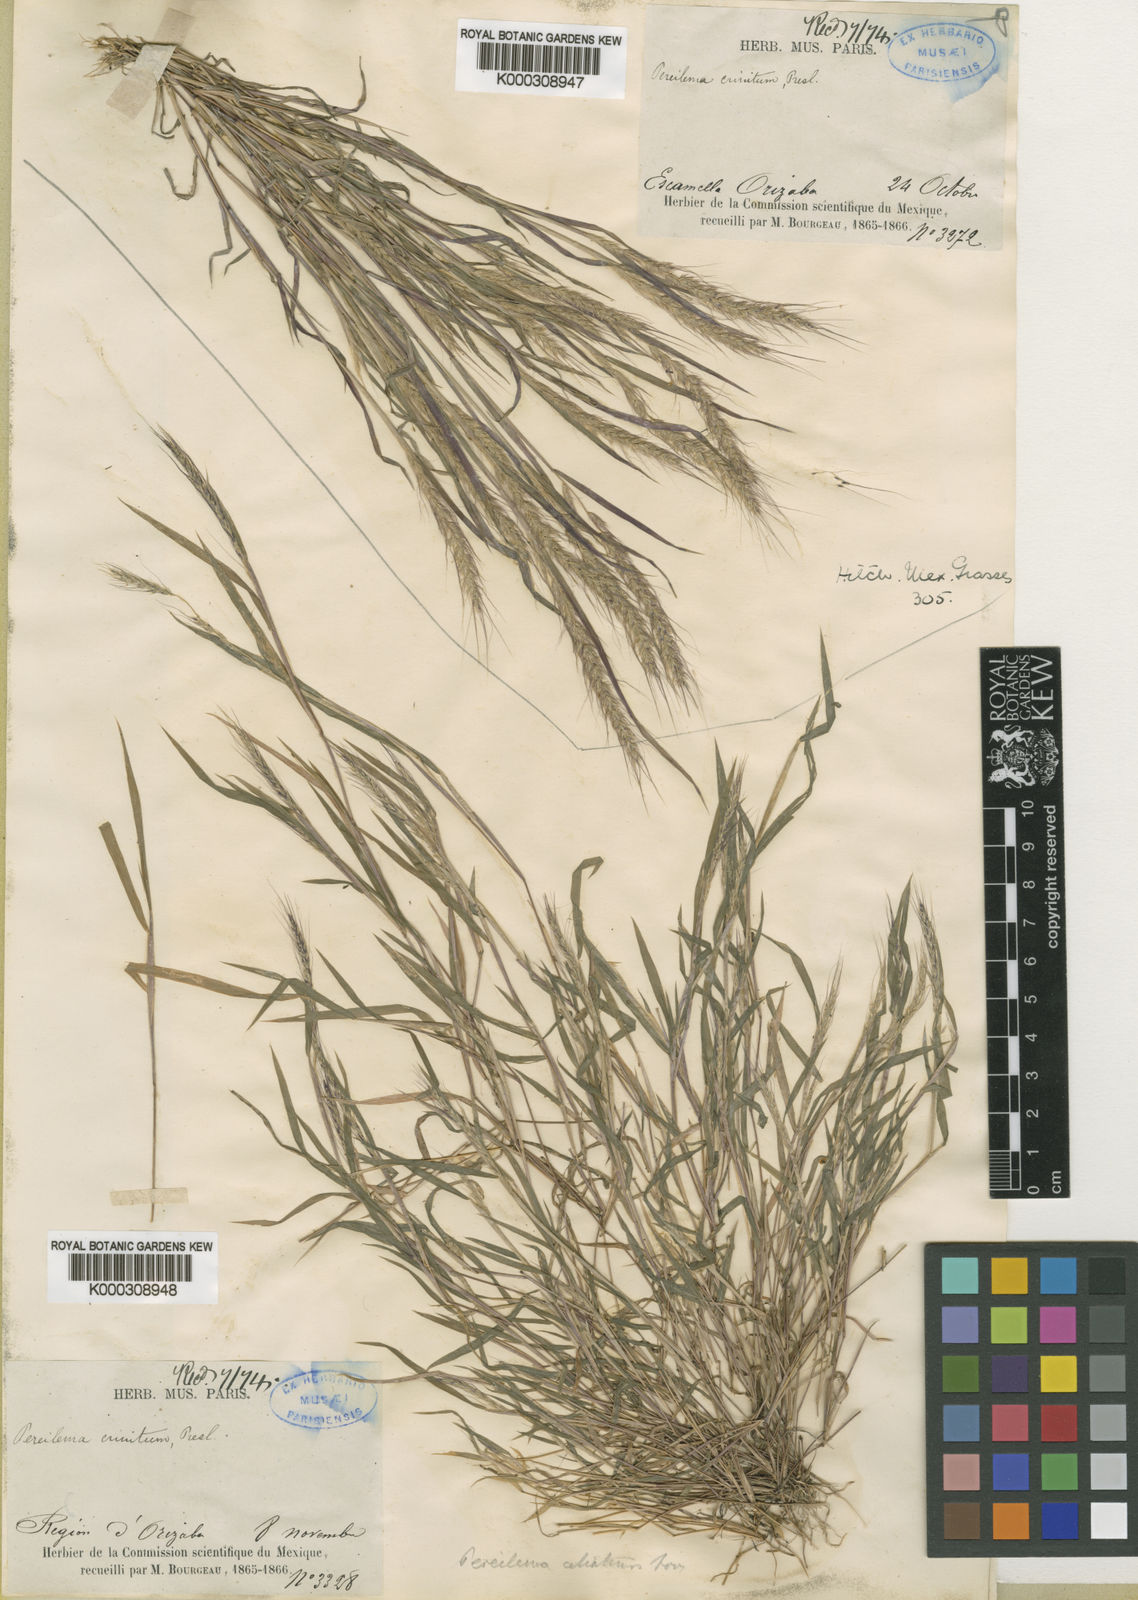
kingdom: Plantae
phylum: Tracheophyta
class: Liliopsida
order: Poales
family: Poaceae
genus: Muhlenbergia
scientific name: Muhlenbergia plumiseta
